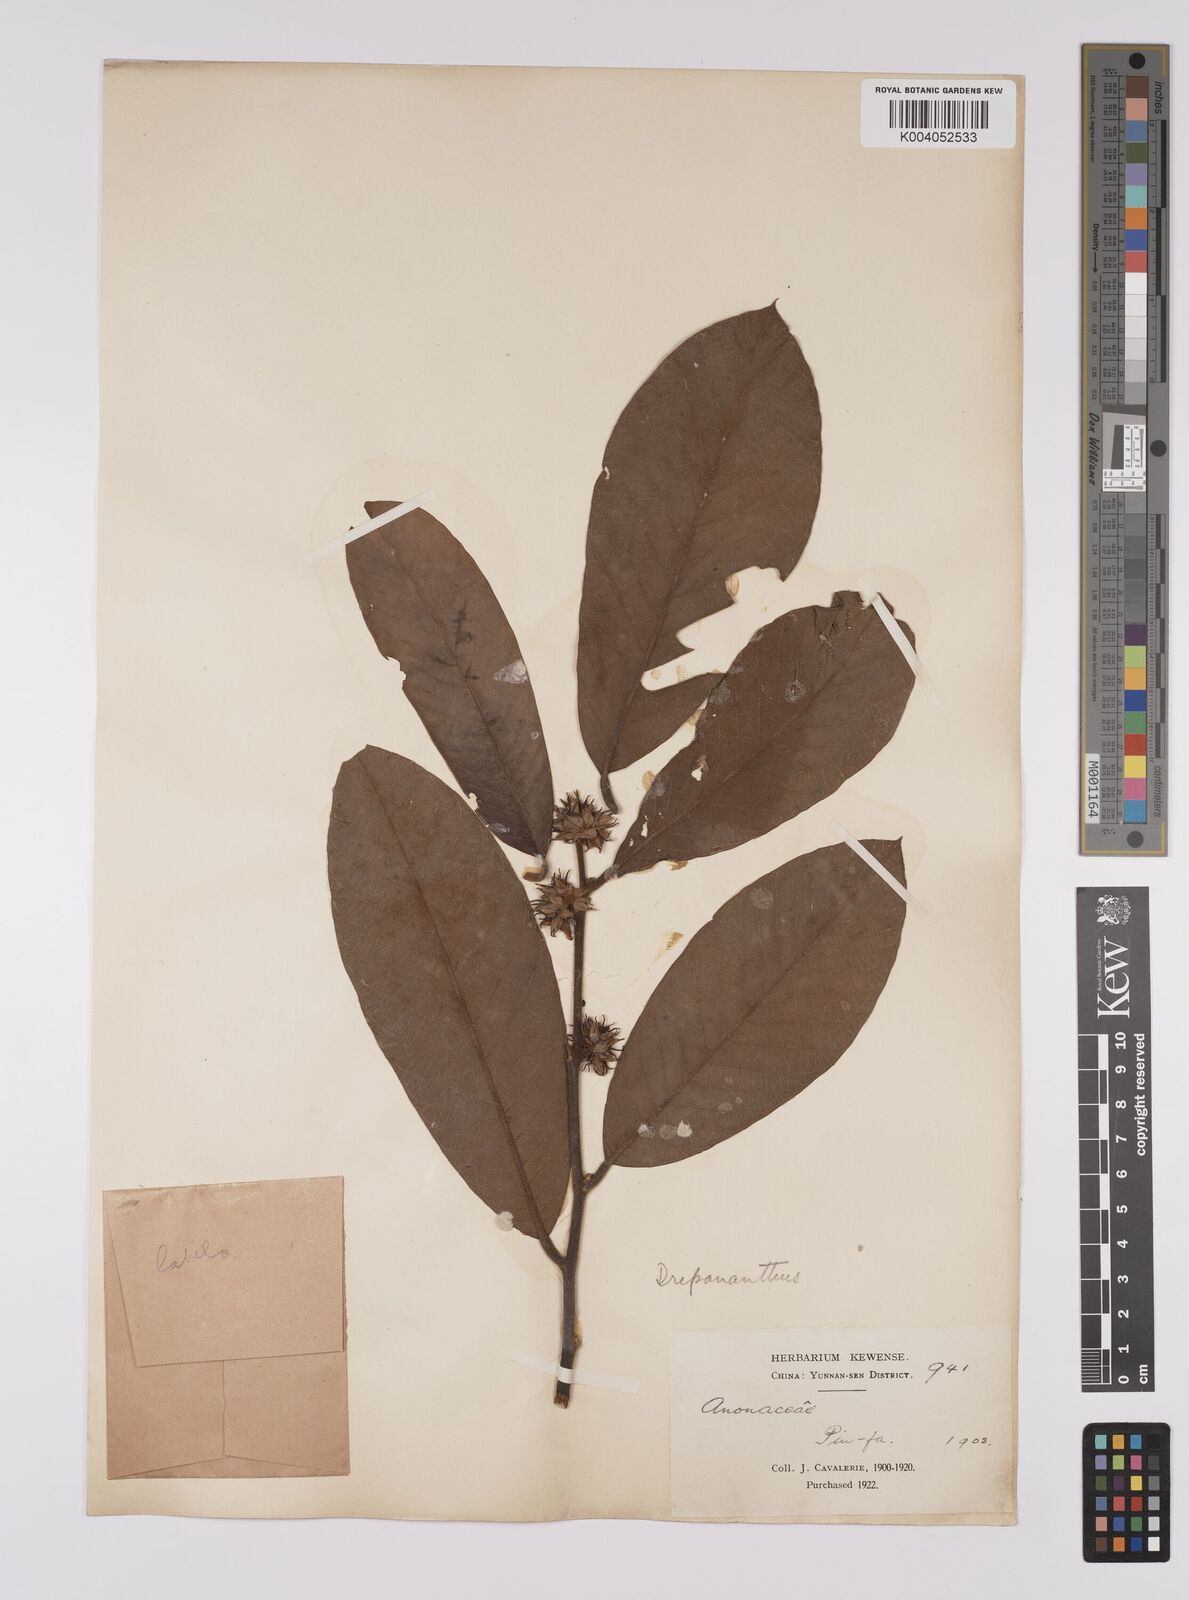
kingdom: Plantae
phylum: Tracheophyta
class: Magnoliopsida
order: Magnoliales
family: Annonaceae
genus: Cyathocalyx
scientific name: Cyathocalyx
